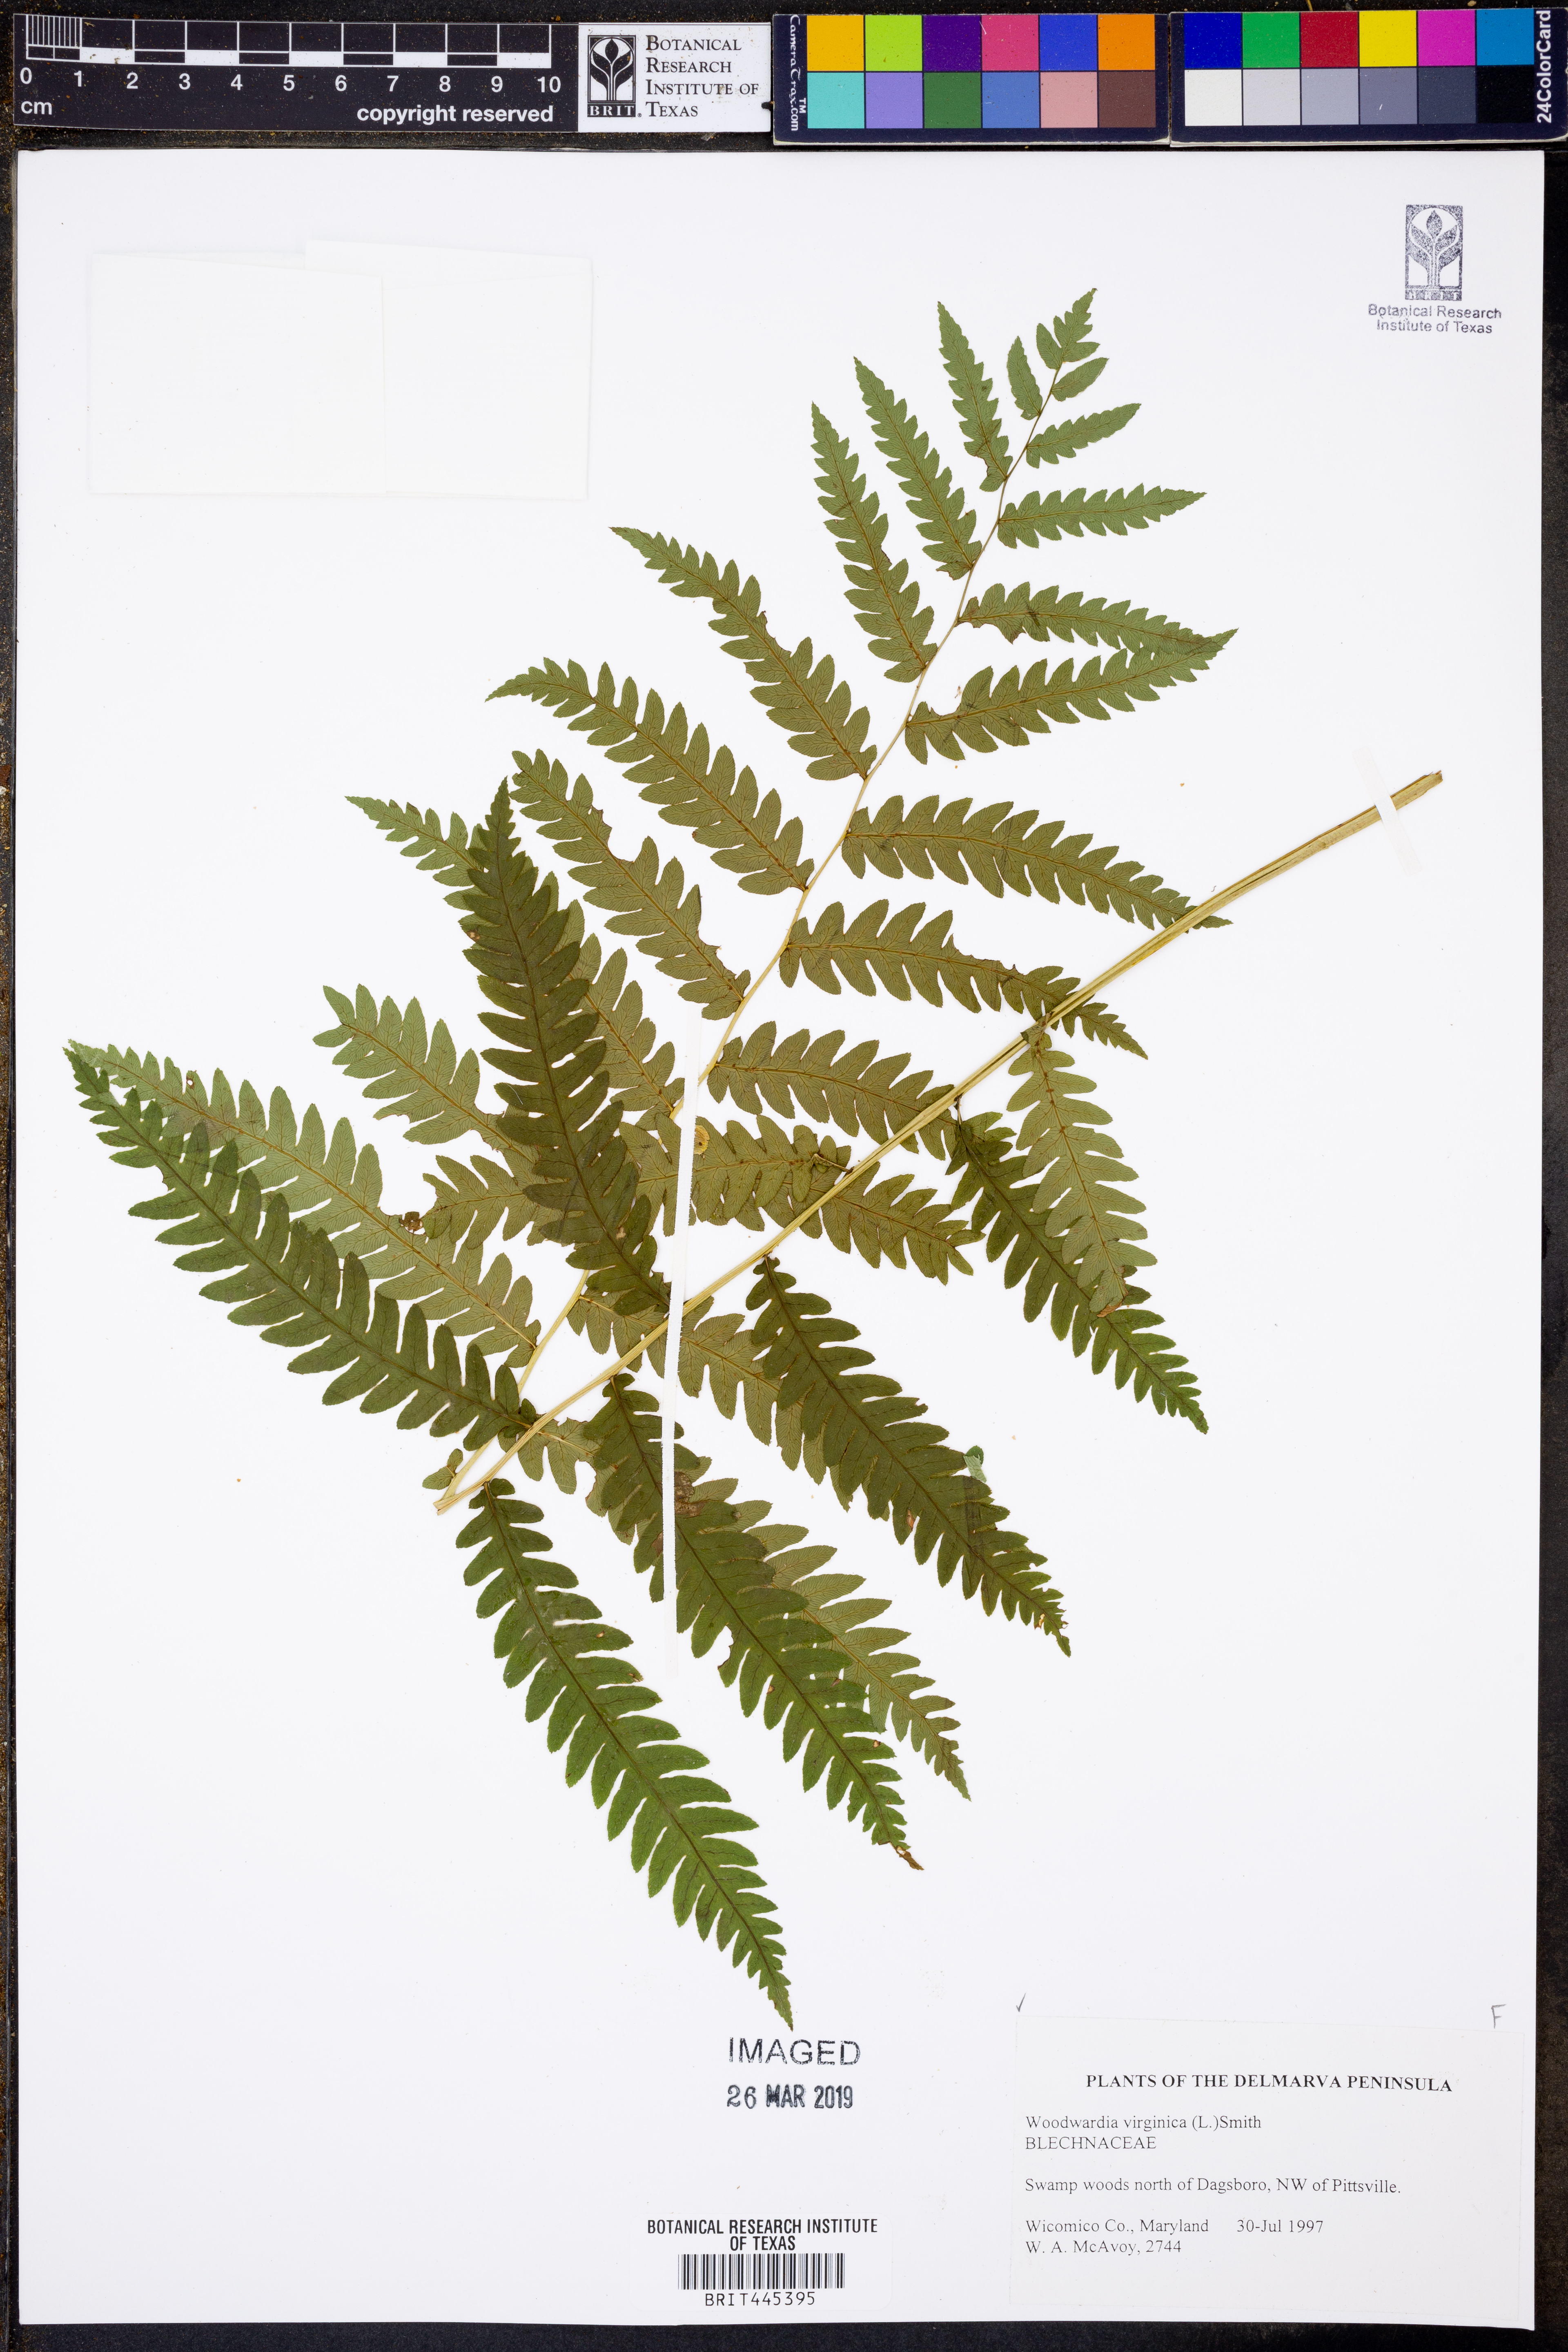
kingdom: Plantae
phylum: Tracheophyta
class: Polypodiopsida
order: Polypodiales
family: Blechnaceae
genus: Anchistea
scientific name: Anchistea virginica
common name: Virginia chain fern
